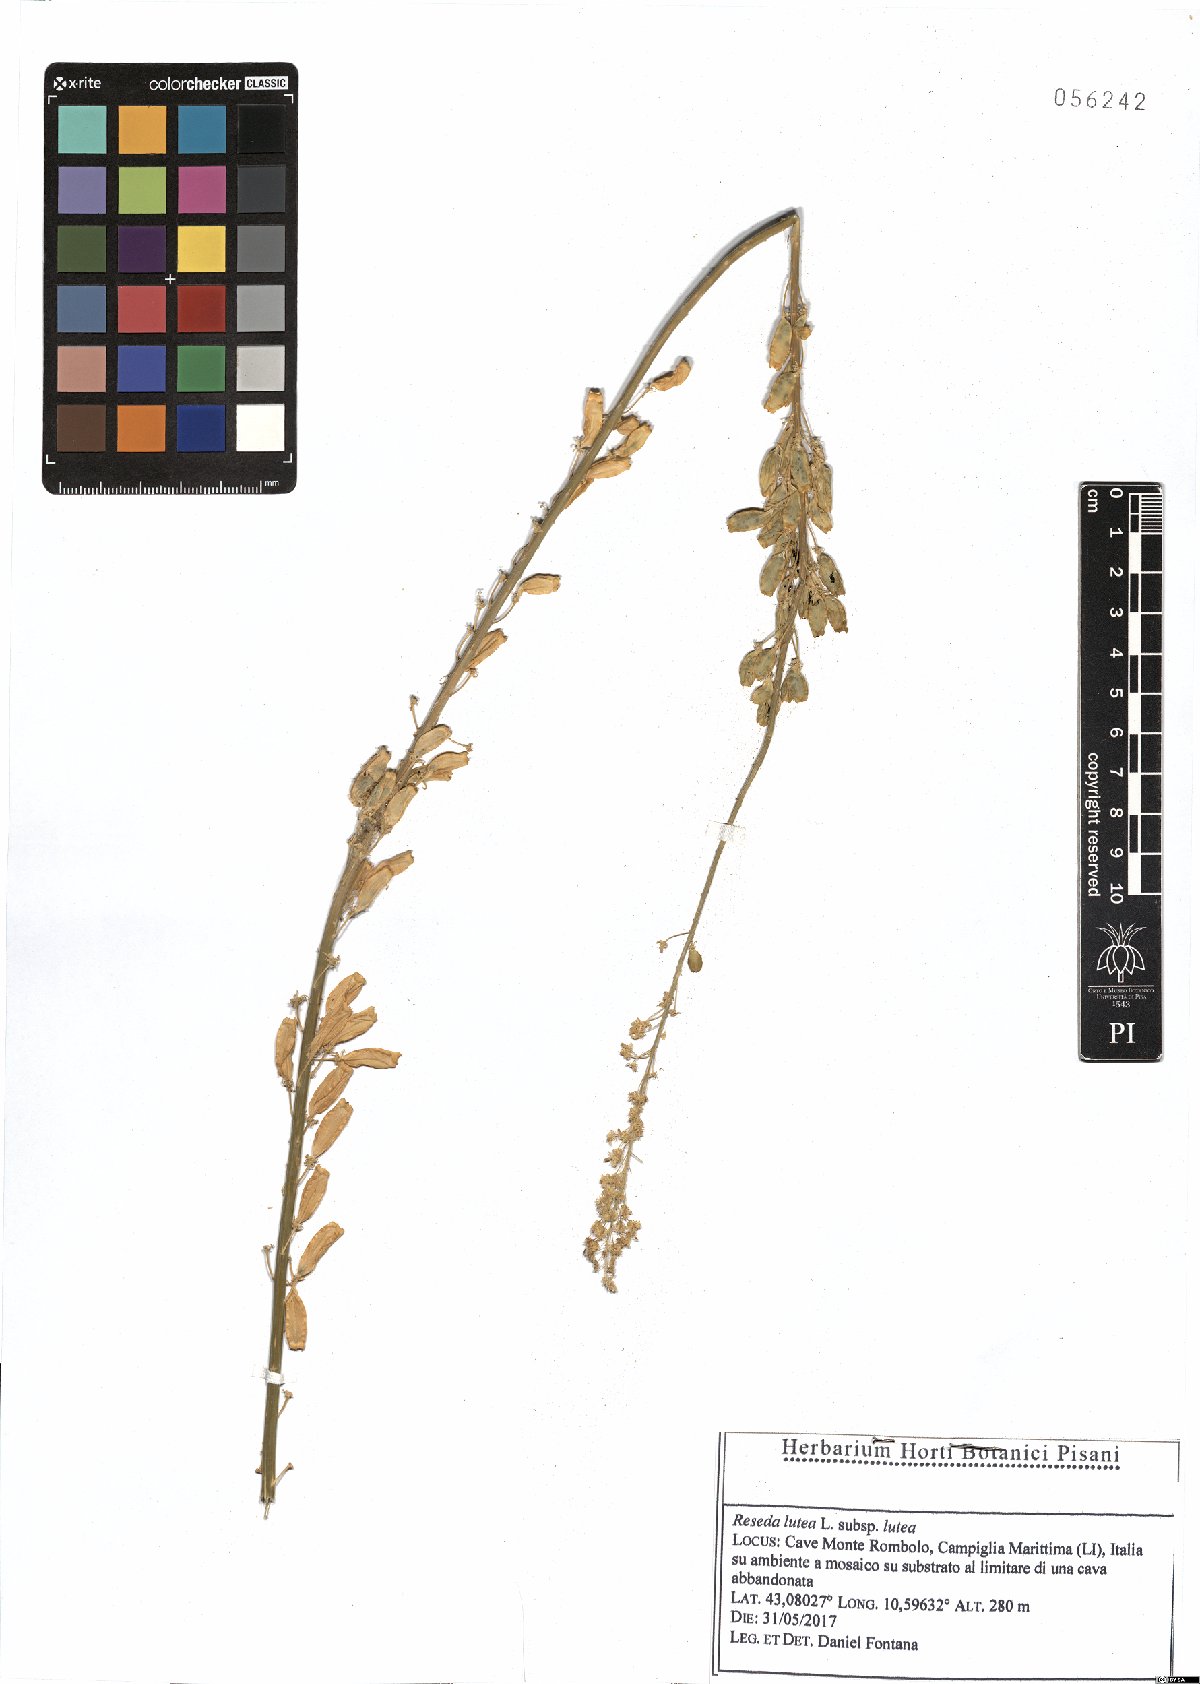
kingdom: Plantae
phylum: Tracheophyta
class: Magnoliopsida
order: Brassicales
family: Resedaceae
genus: Reseda
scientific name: Reseda lutea
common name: Wild mignonette
